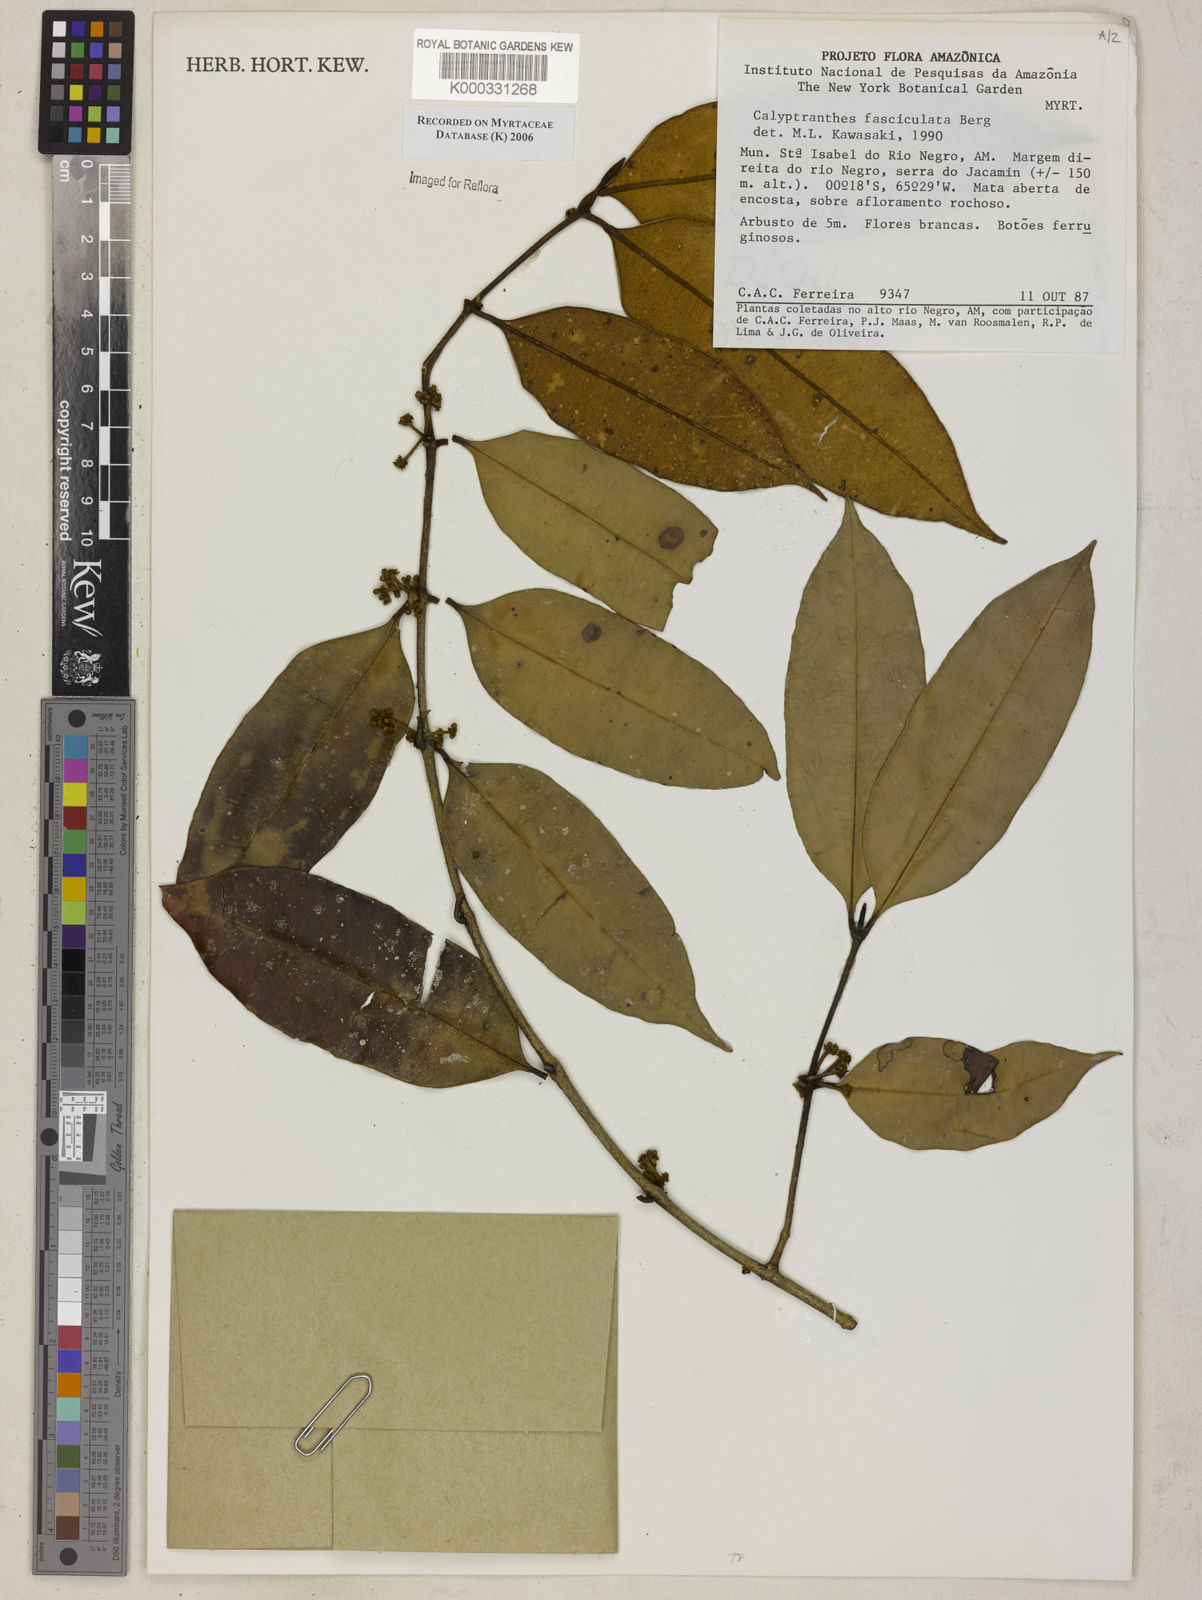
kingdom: Plantae
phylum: Tracheophyta
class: Magnoliopsida
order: Myrtales
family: Myrtaceae
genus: Myrcia
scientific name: Myrcia fasciculata
